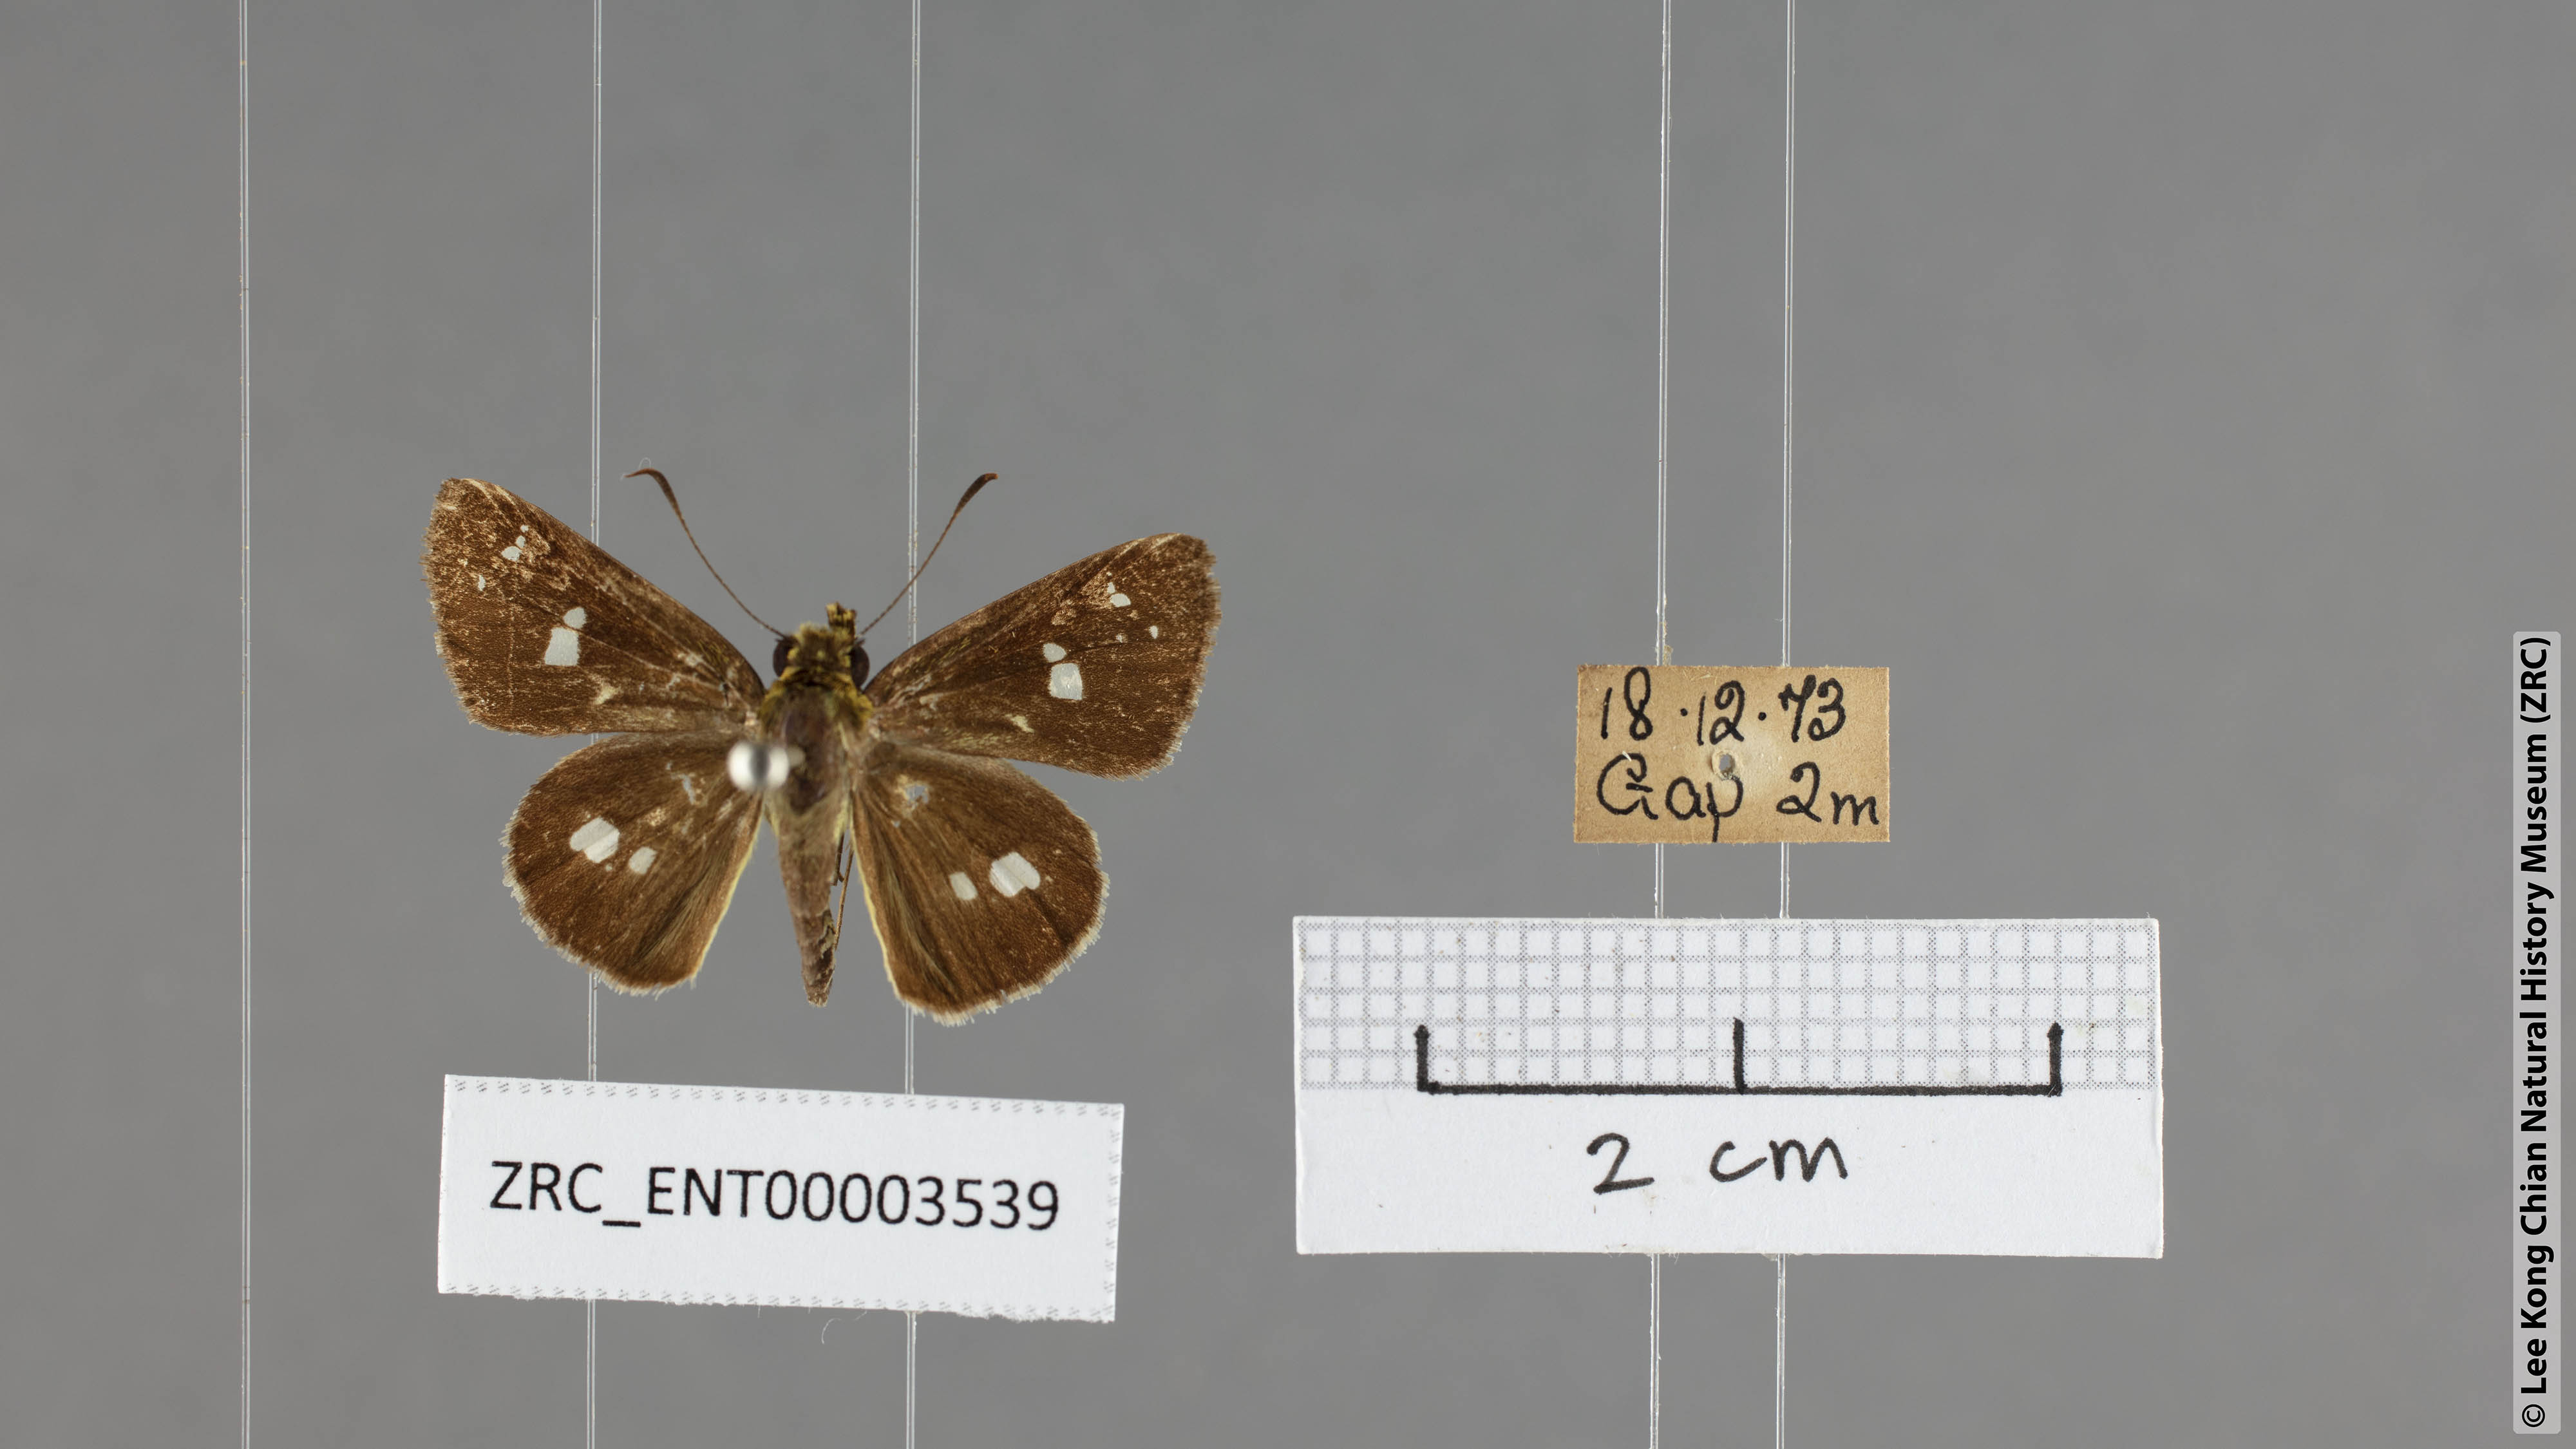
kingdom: Animalia
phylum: Arthropoda
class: Insecta
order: Lepidoptera
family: Hesperiidae
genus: Scobura
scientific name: Scobura isota
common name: Swinhoe's forest bob
